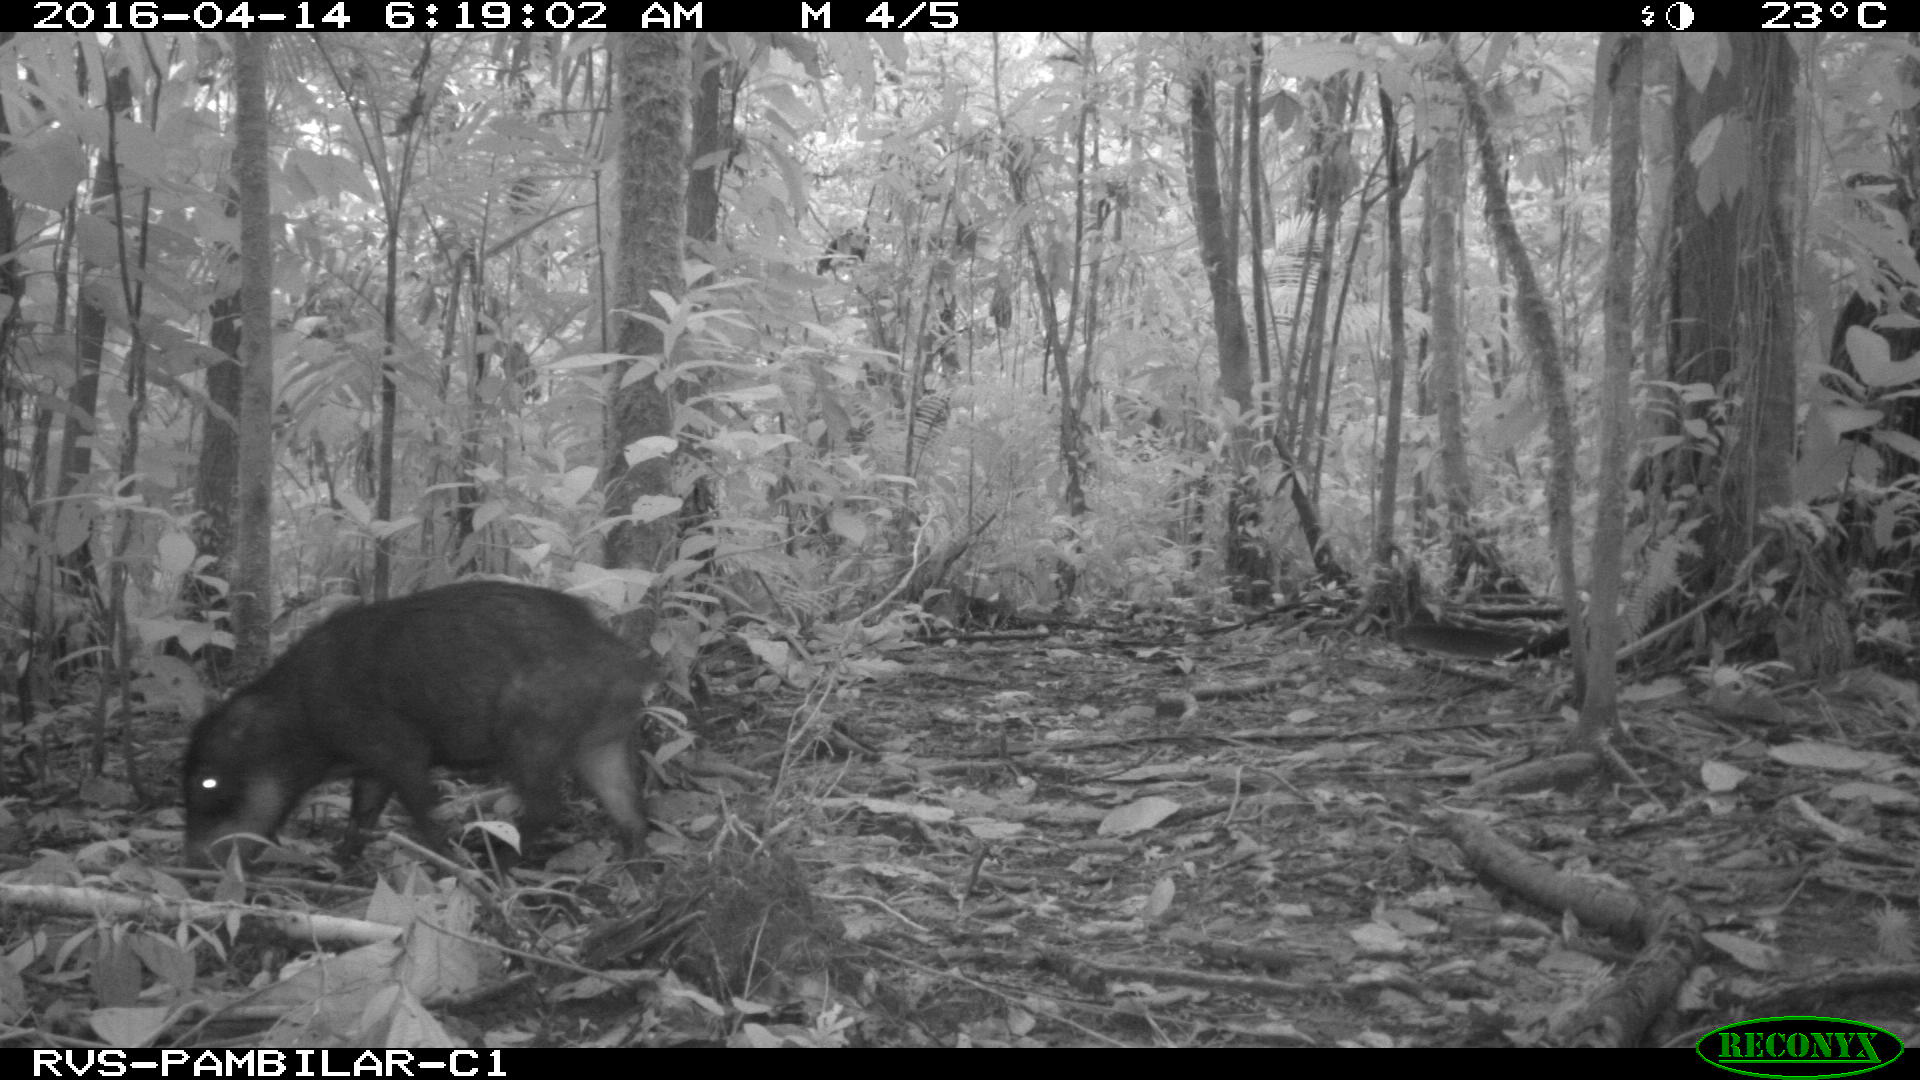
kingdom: Animalia
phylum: Chordata
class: Mammalia
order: Artiodactyla
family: Tayassuidae
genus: Tayassu
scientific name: Tayassu pecari
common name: White-lipped peccary
